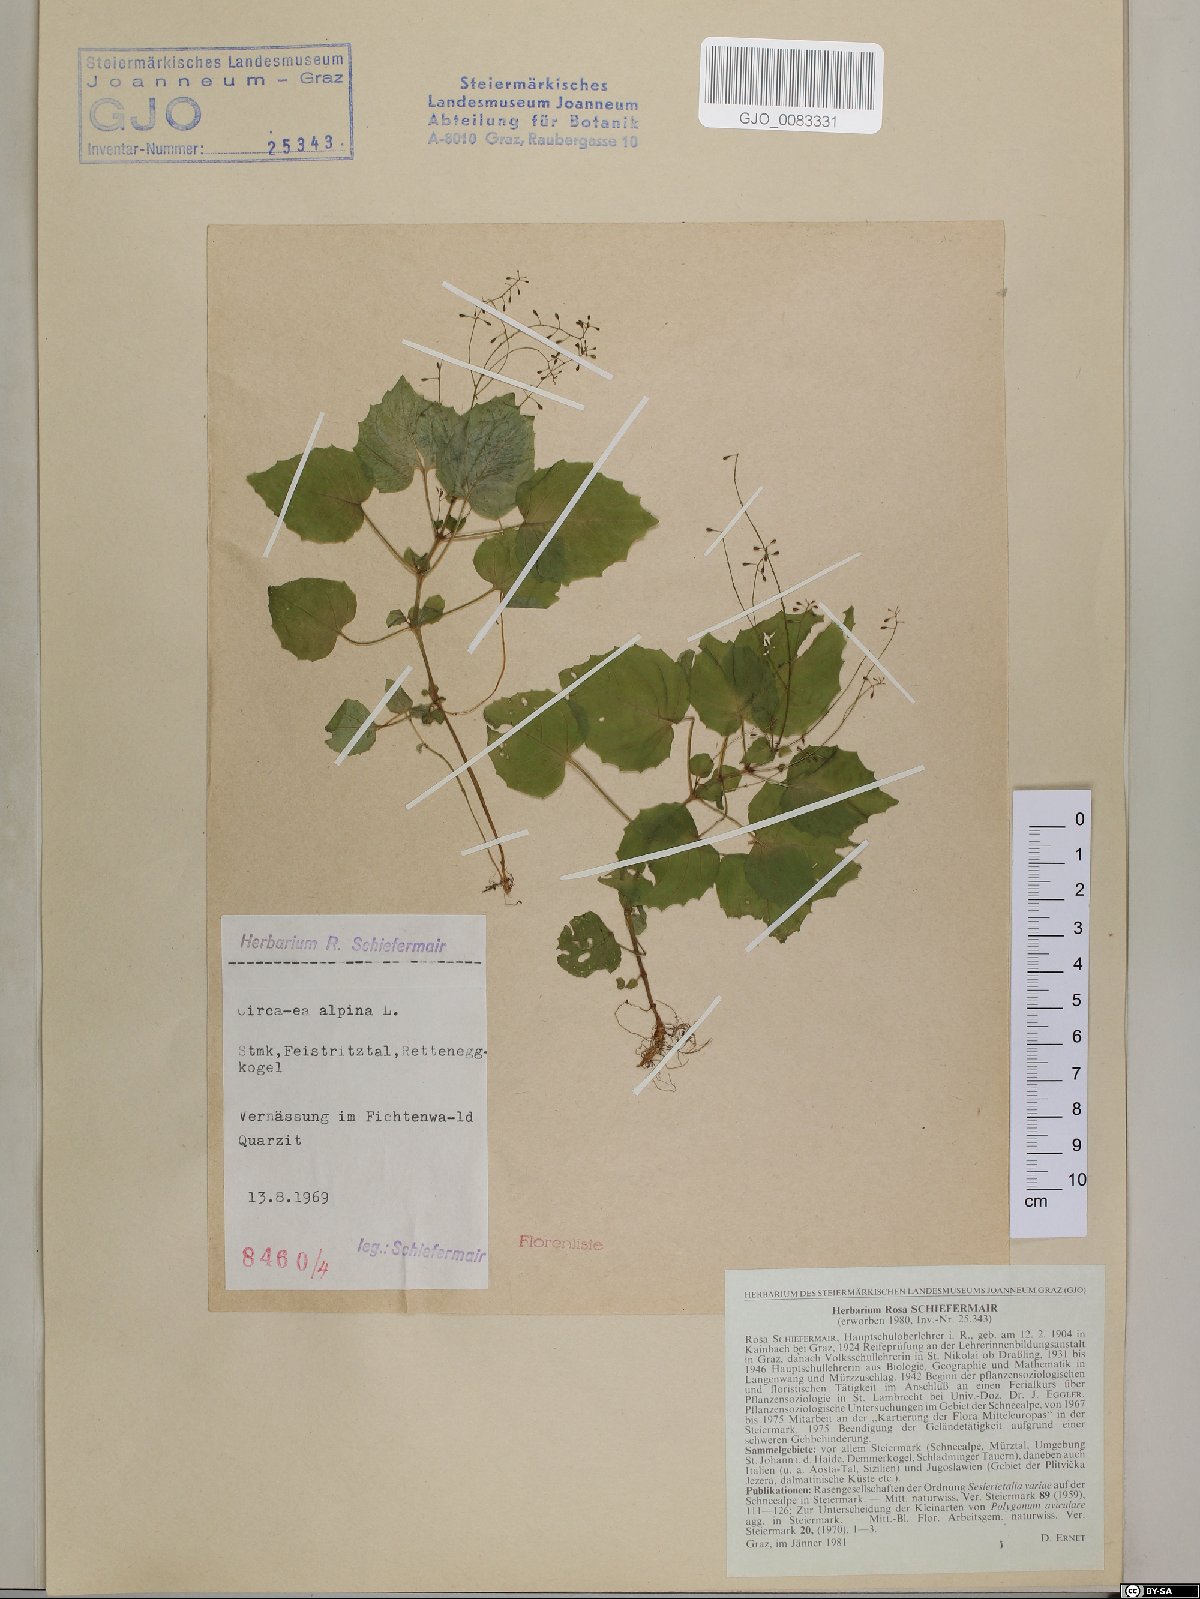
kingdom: Plantae
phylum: Tracheophyta
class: Magnoliopsida
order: Myrtales
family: Onagraceae
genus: Circaea
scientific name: Circaea alpina
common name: Alpine enchanter's-nightshade
